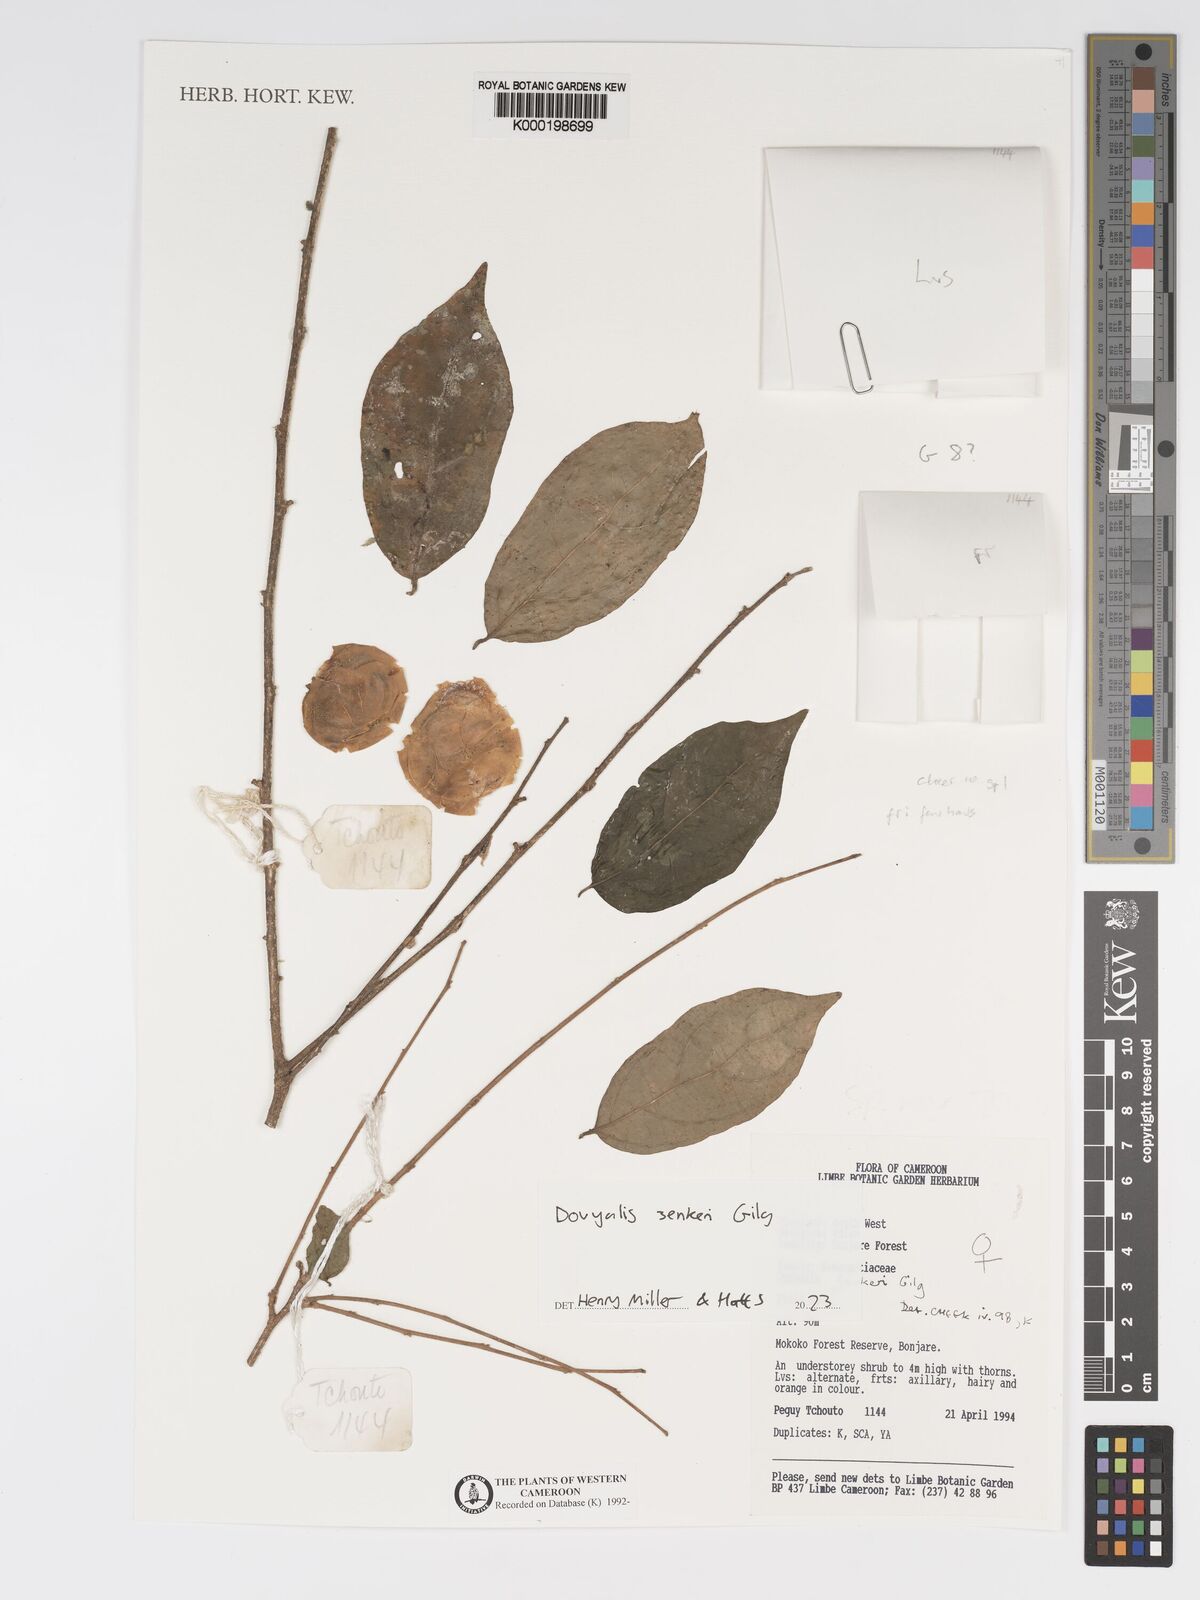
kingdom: Plantae
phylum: Tracheophyta
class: Magnoliopsida
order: Malpighiales
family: Salicaceae
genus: Dovyalis
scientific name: Dovyalis zenkeri
